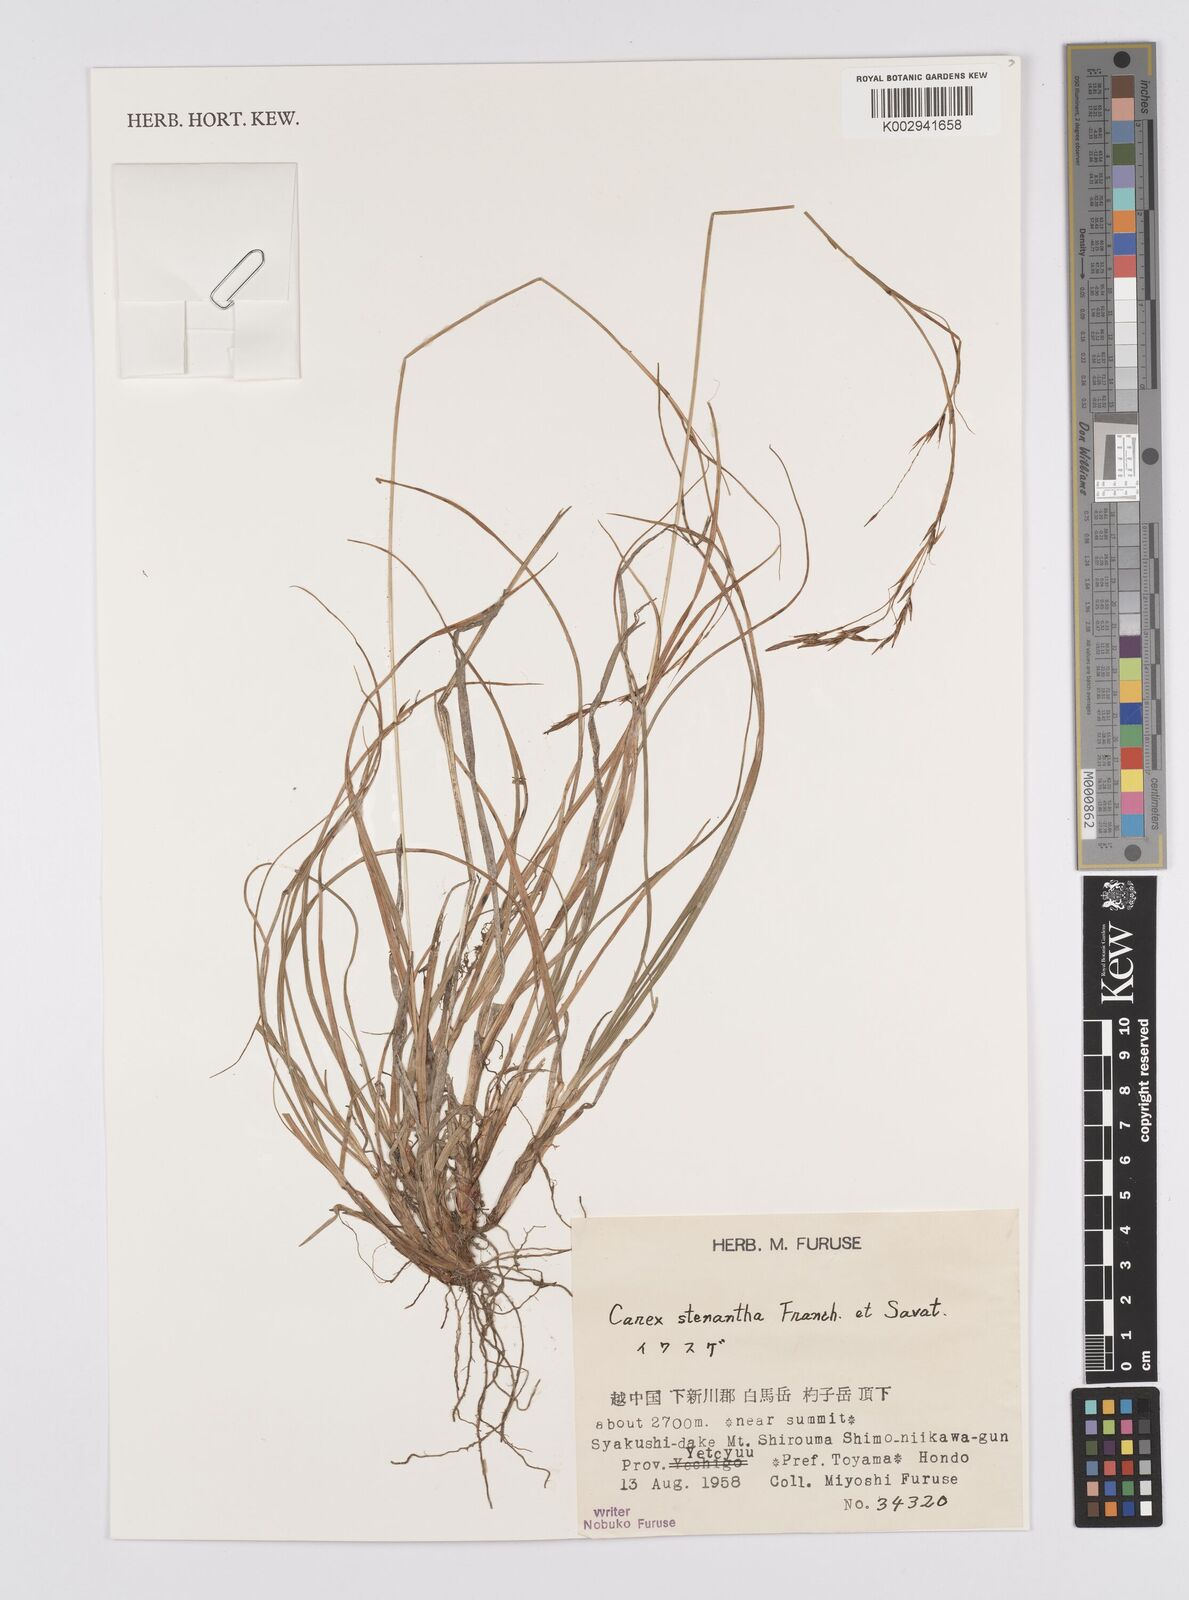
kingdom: Plantae
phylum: Tracheophyta
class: Liliopsida
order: Poales
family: Cyperaceae
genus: Carex
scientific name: Carex stenantha
